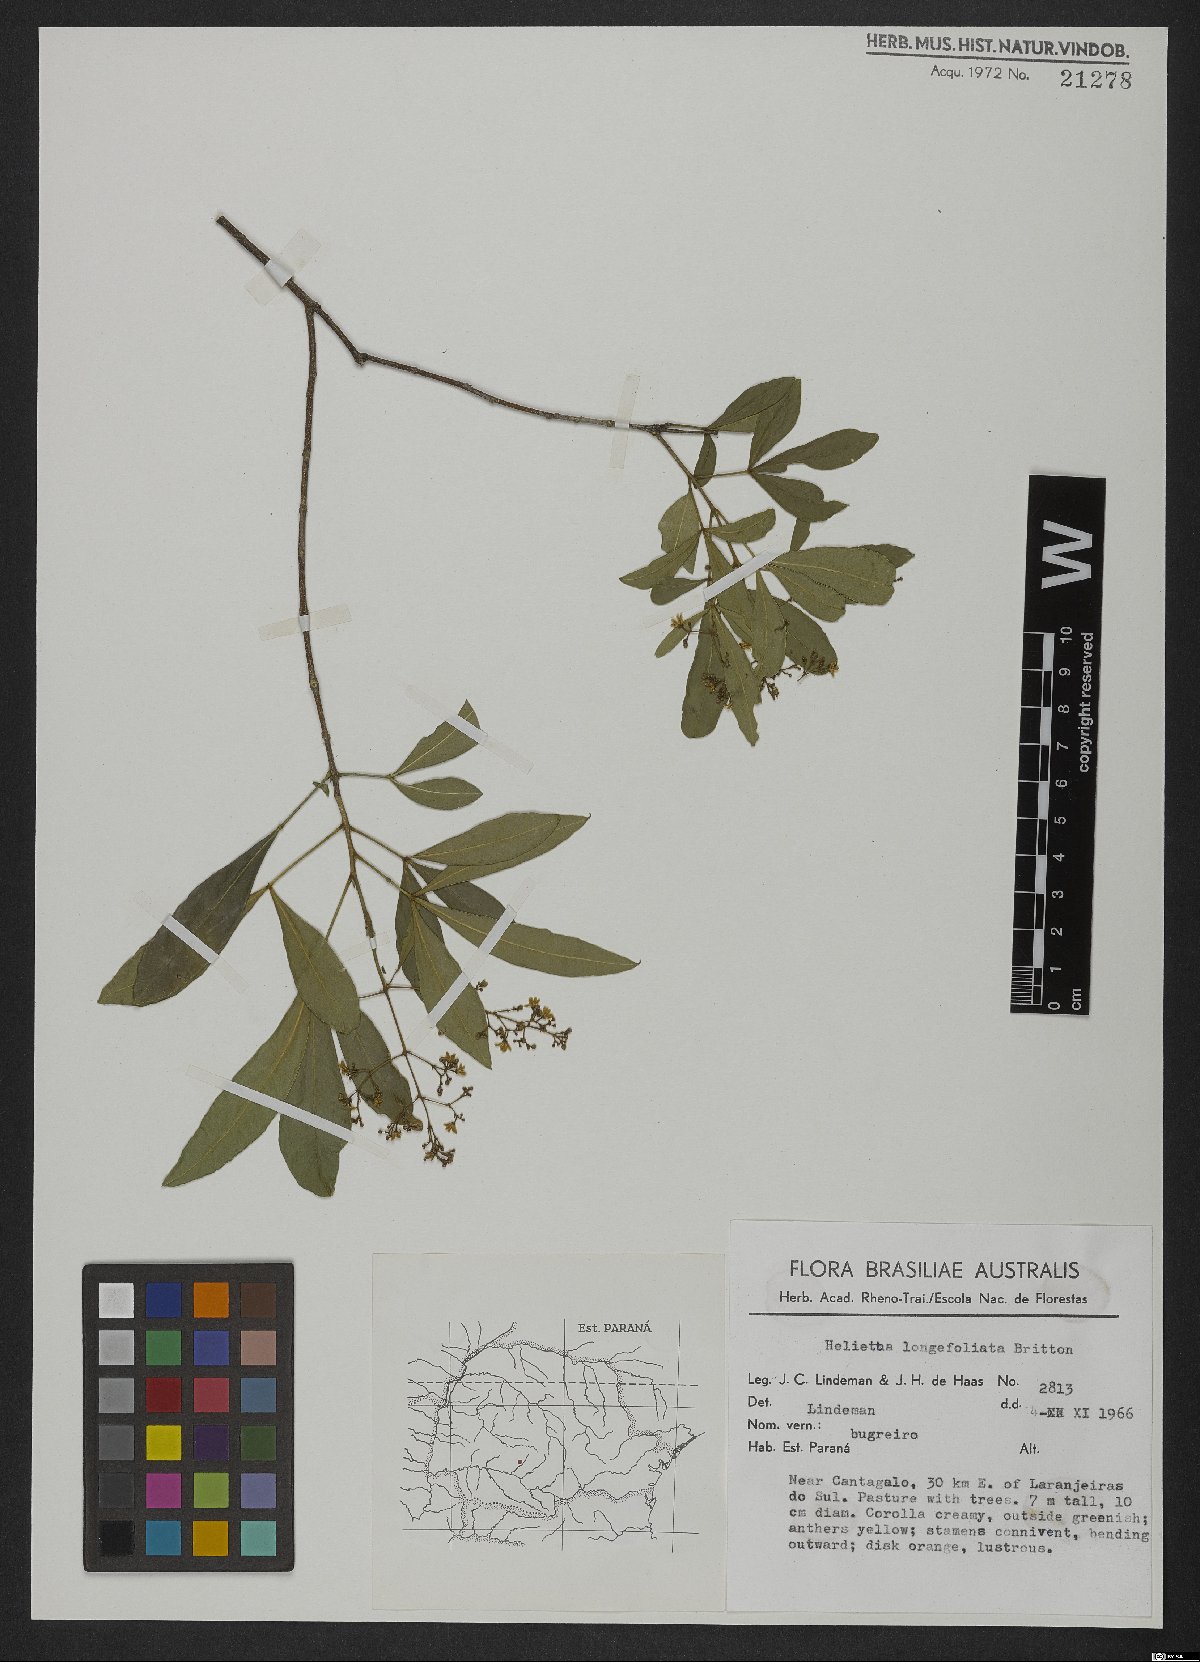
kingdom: Plantae
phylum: Tracheophyta
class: Magnoliopsida
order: Sapindales
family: Rutaceae
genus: Helietta
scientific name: Helietta apiculata
